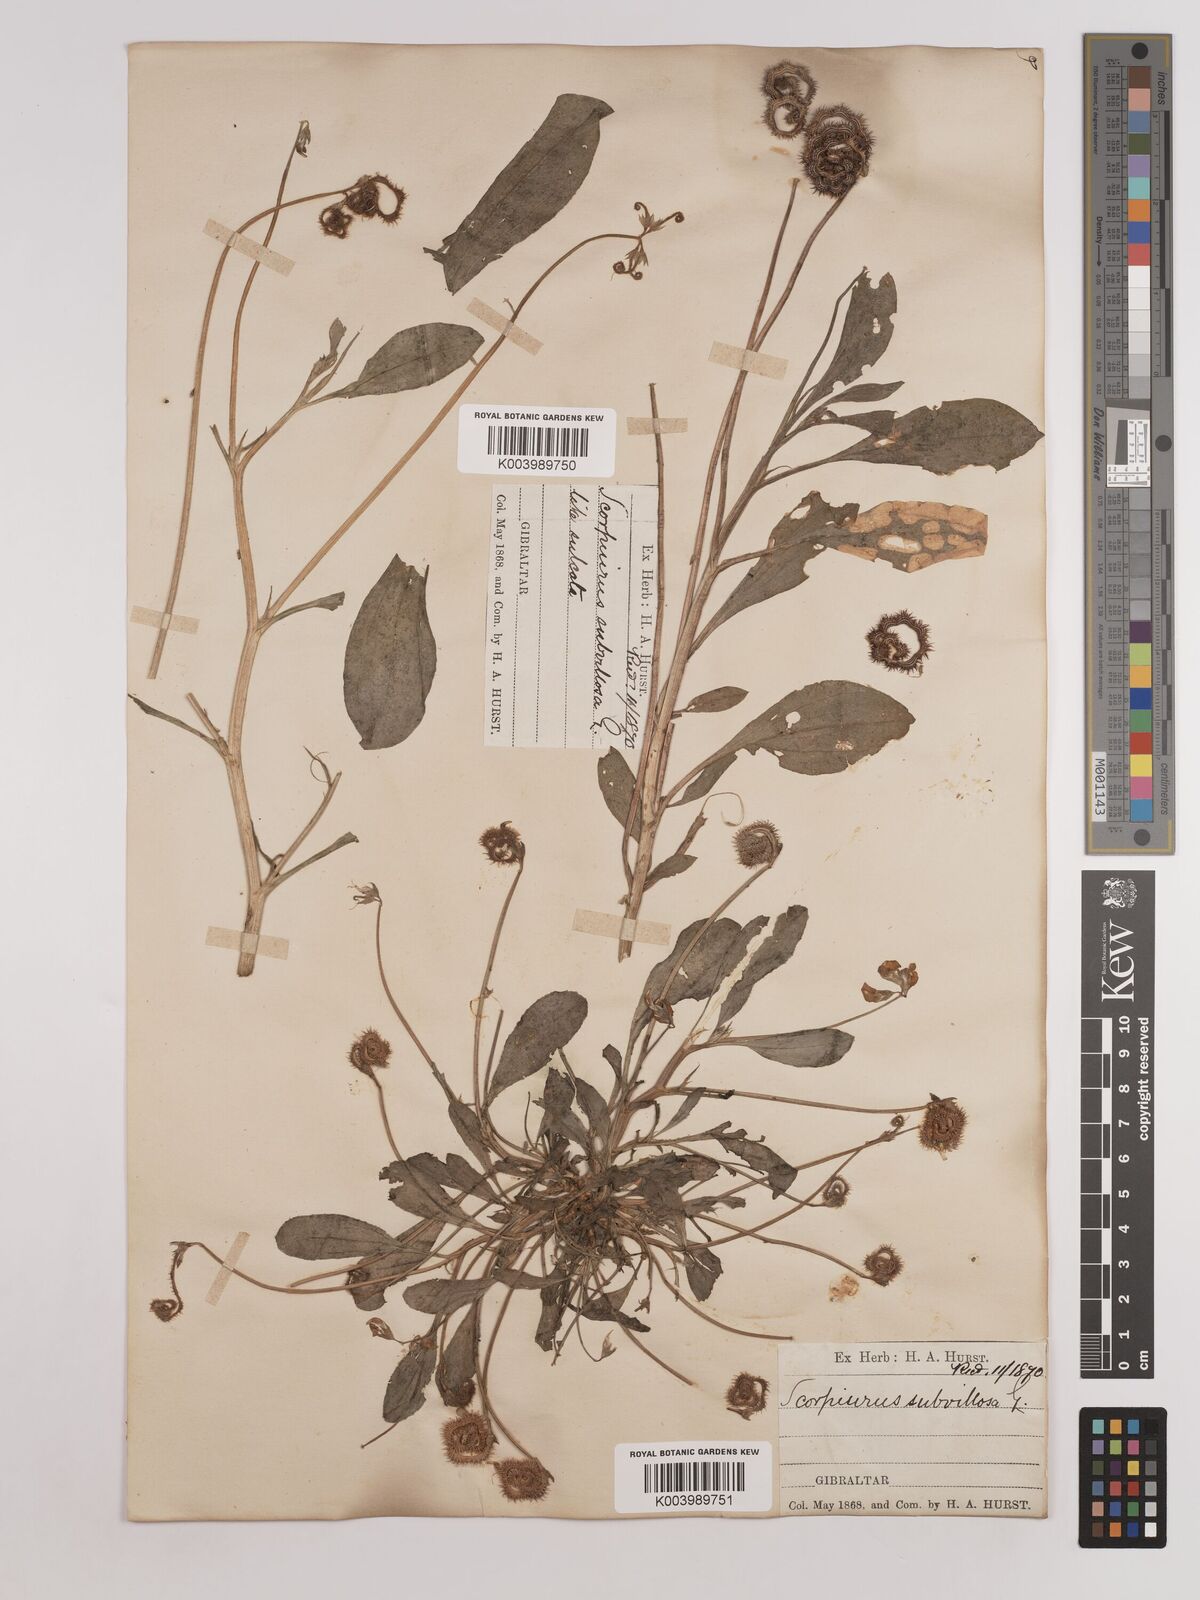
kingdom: Plantae
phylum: Tracheophyta
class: Magnoliopsida
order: Fabales
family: Fabaceae
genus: Scorpiurus
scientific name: Scorpiurus muricatus
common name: Caterpillar-plant
